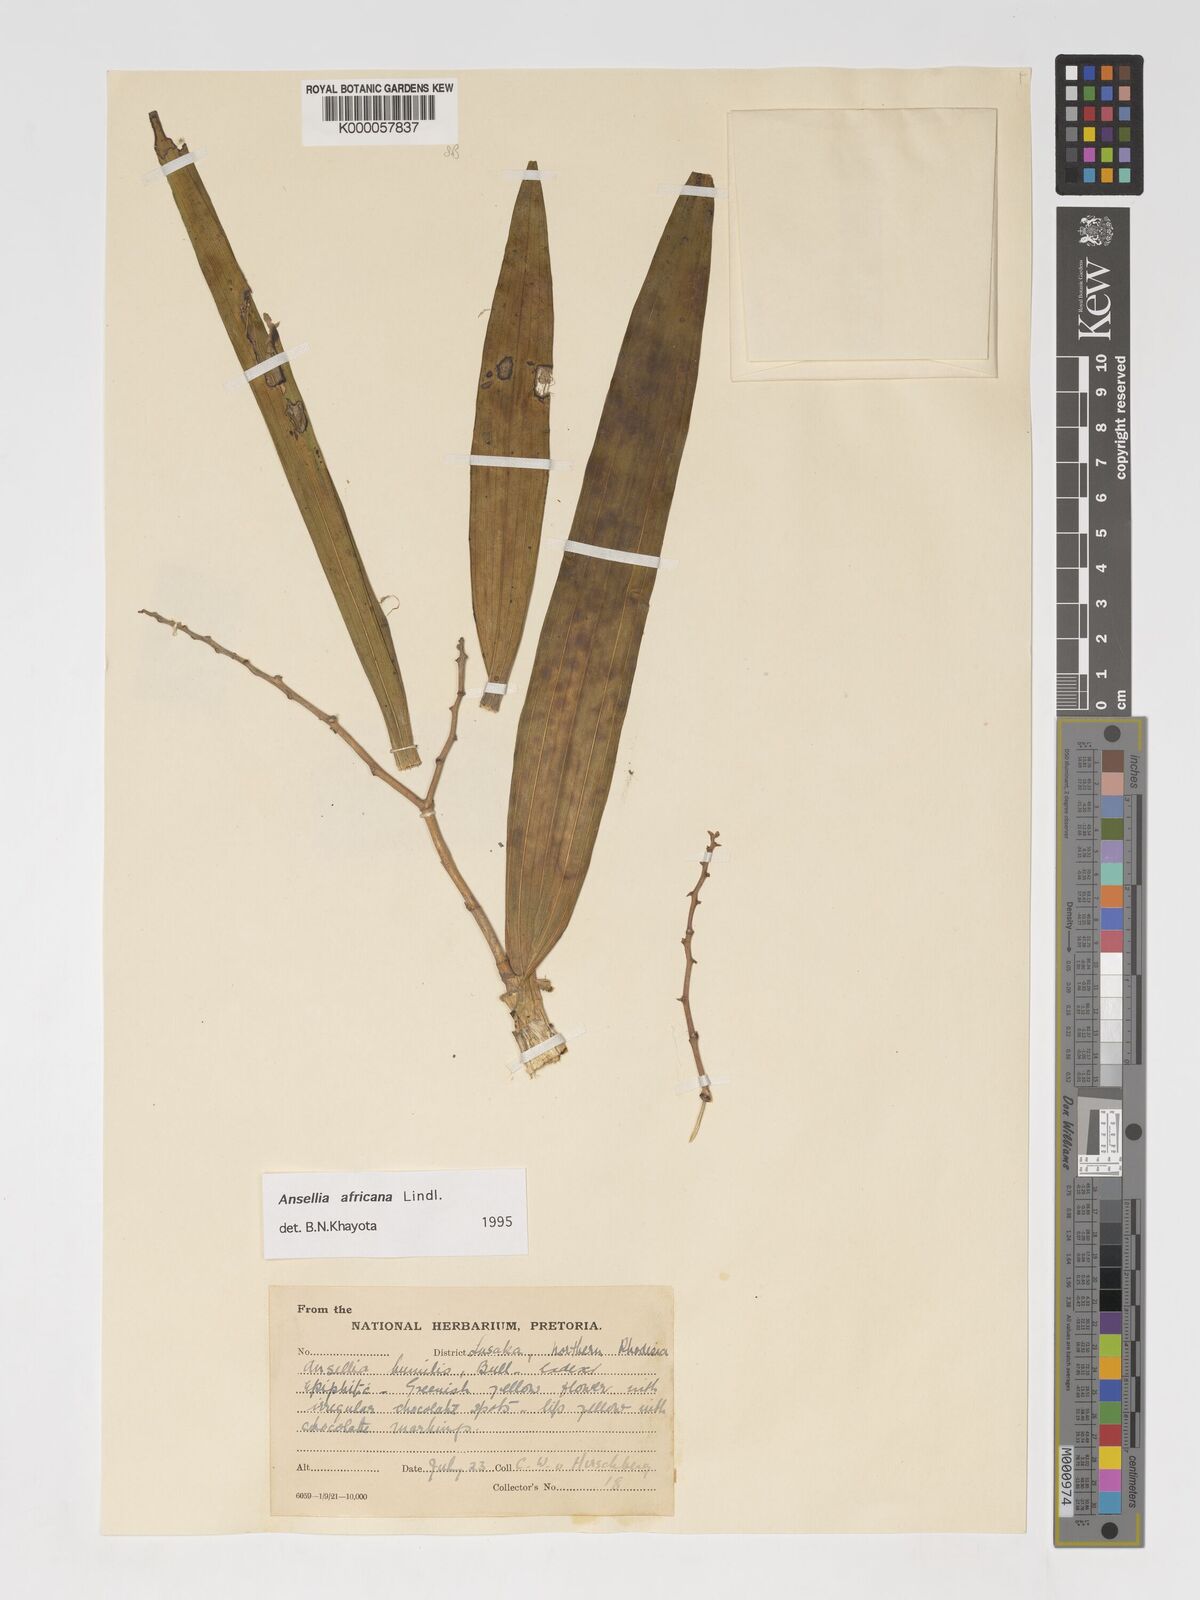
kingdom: Plantae
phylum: Tracheophyta
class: Liliopsida
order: Asparagales
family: Orchidaceae
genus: Ansellia
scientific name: Ansellia africana
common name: African ansellia
